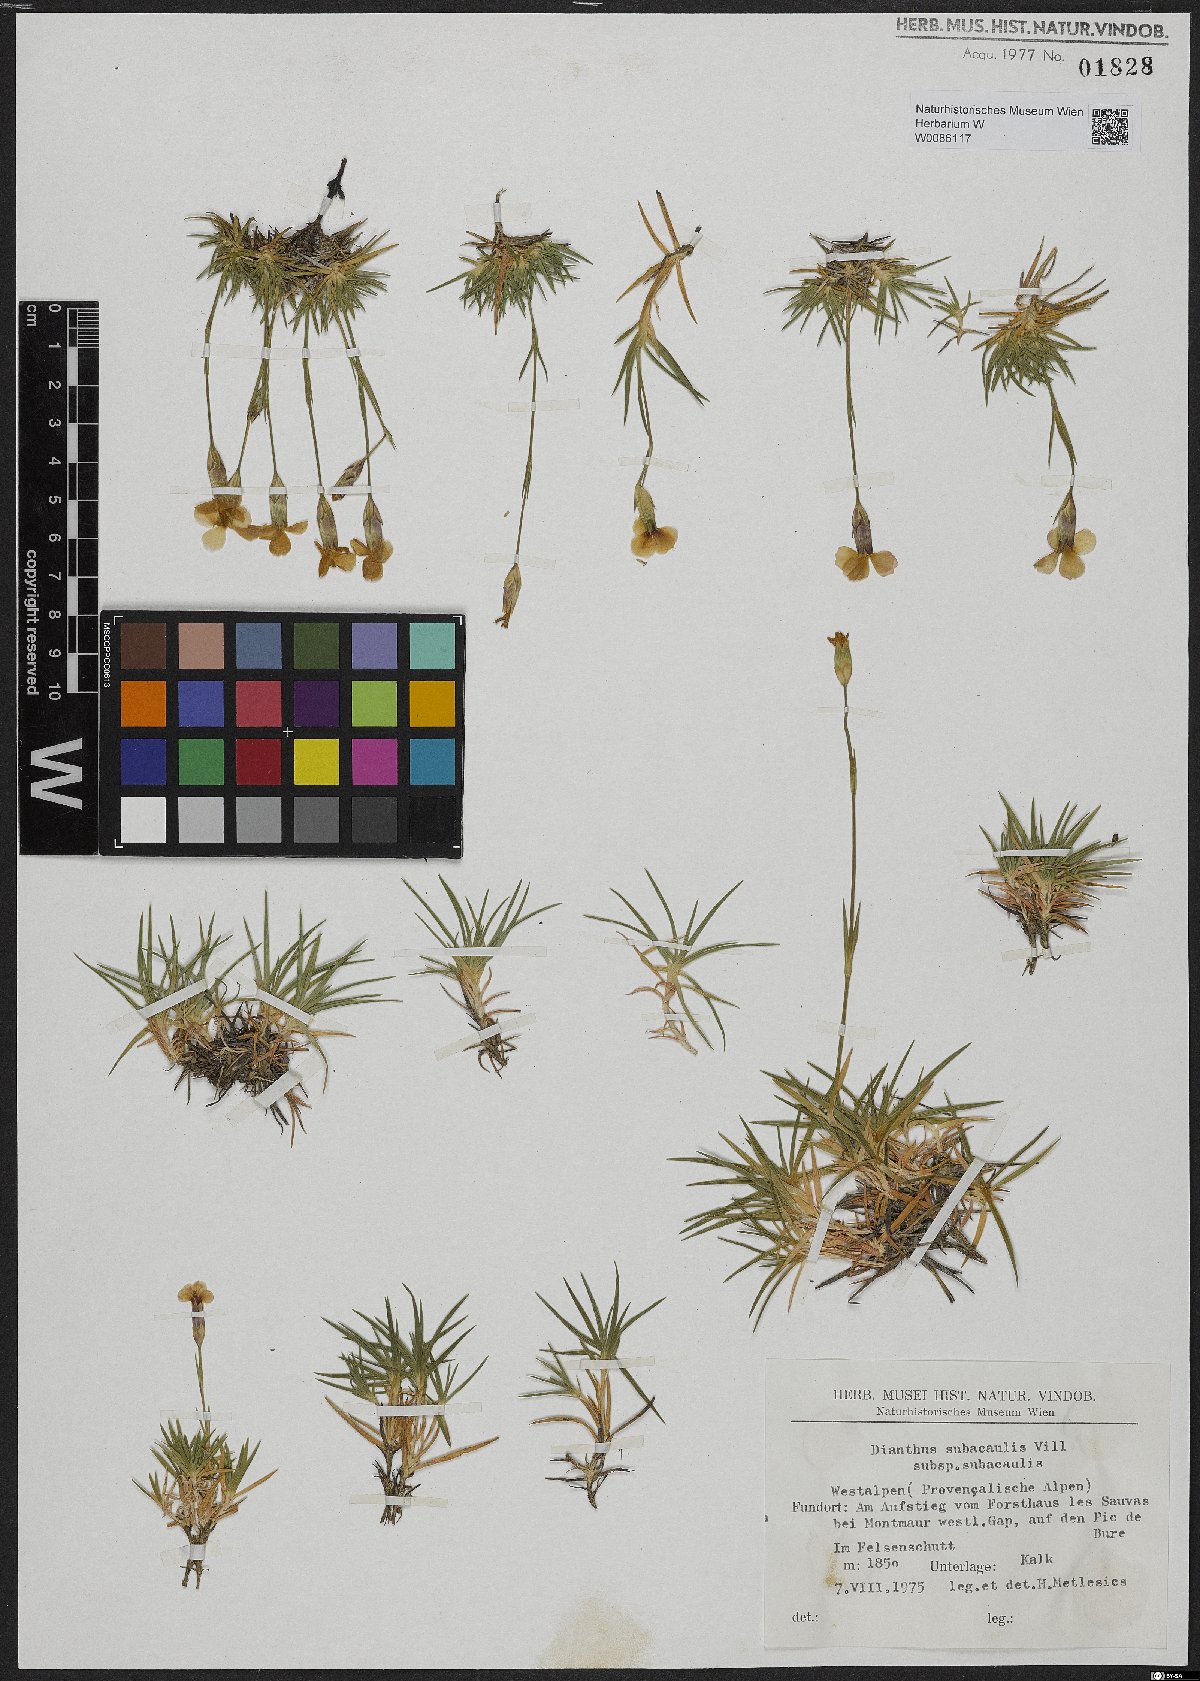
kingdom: Plantae
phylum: Tracheophyta
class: Magnoliopsida
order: Caryophyllales
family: Caryophyllaceae
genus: Dianthus
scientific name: Dianthus pungens
